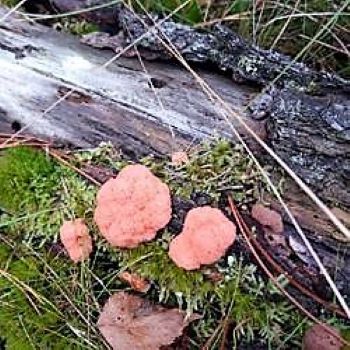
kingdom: Protozoa
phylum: Mycetozoa
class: Myxomycetes
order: Cribrariales
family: Tubiferaceae
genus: Tubifera
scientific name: Tubifera ferruginosa
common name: kanel-støvrør
